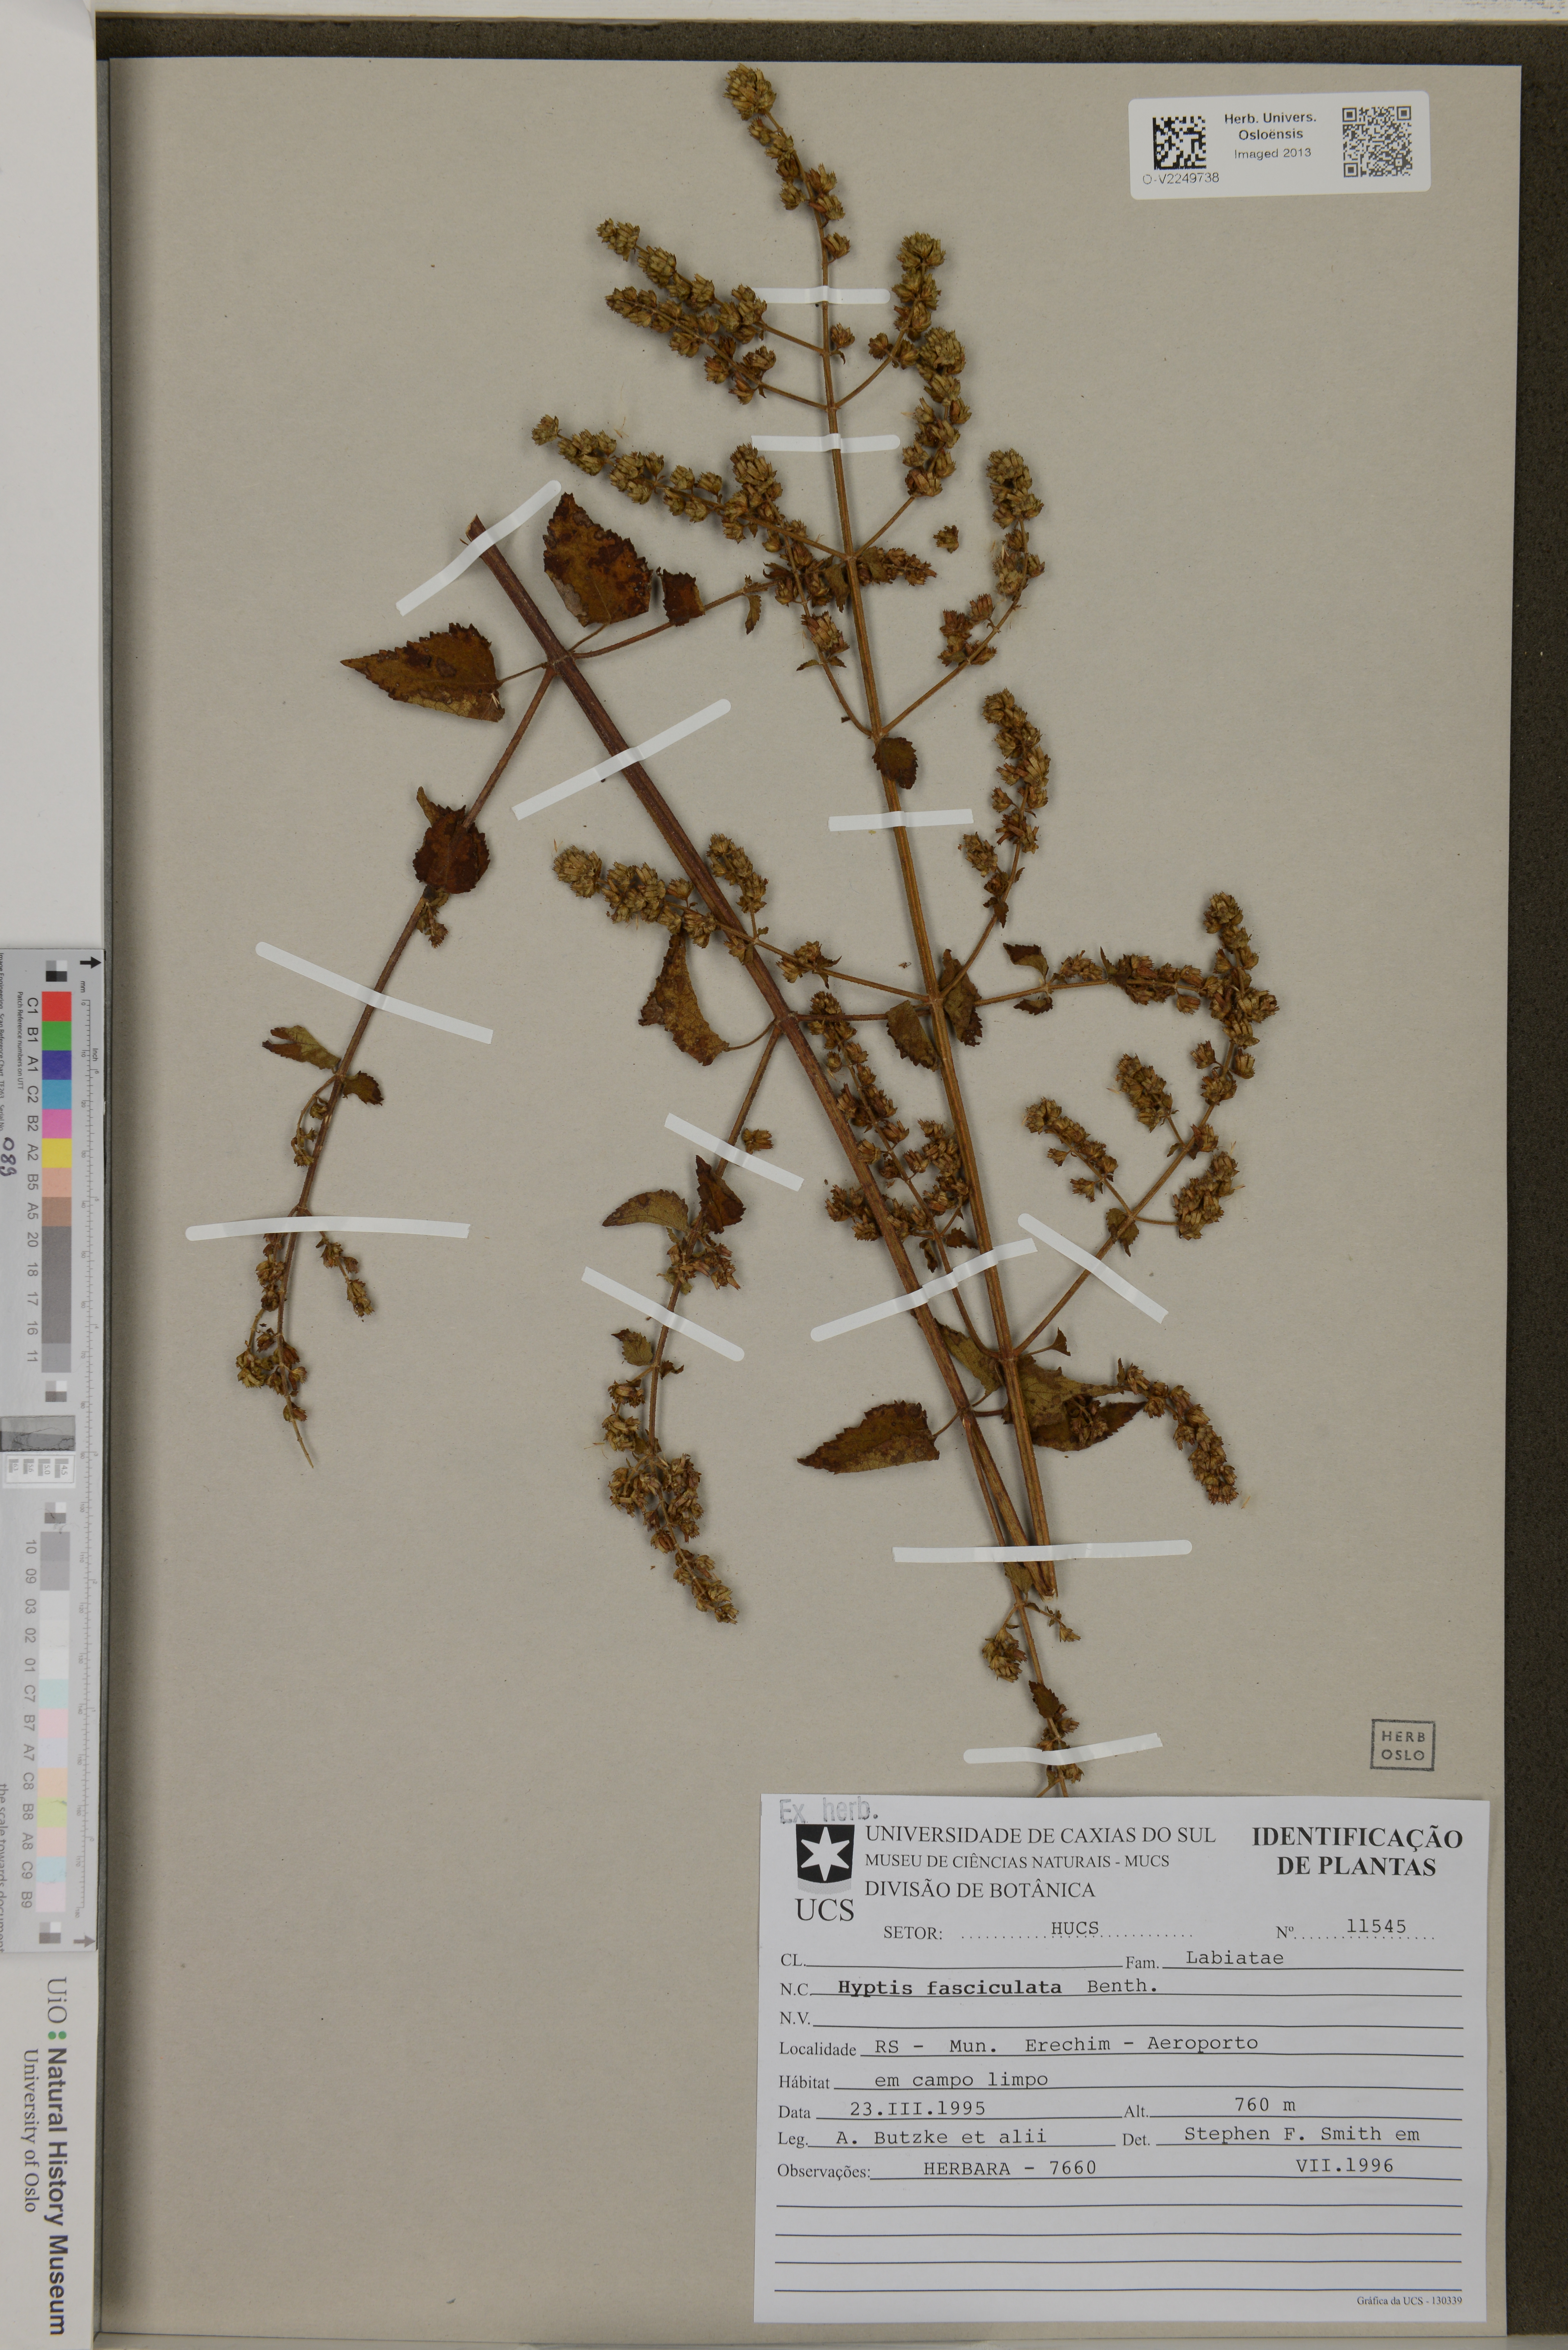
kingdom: Plantae
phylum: Tracheophyta
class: Magnoliopsida
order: Lamiales
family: Lamiaceae
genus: Condea
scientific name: Condea undulata
